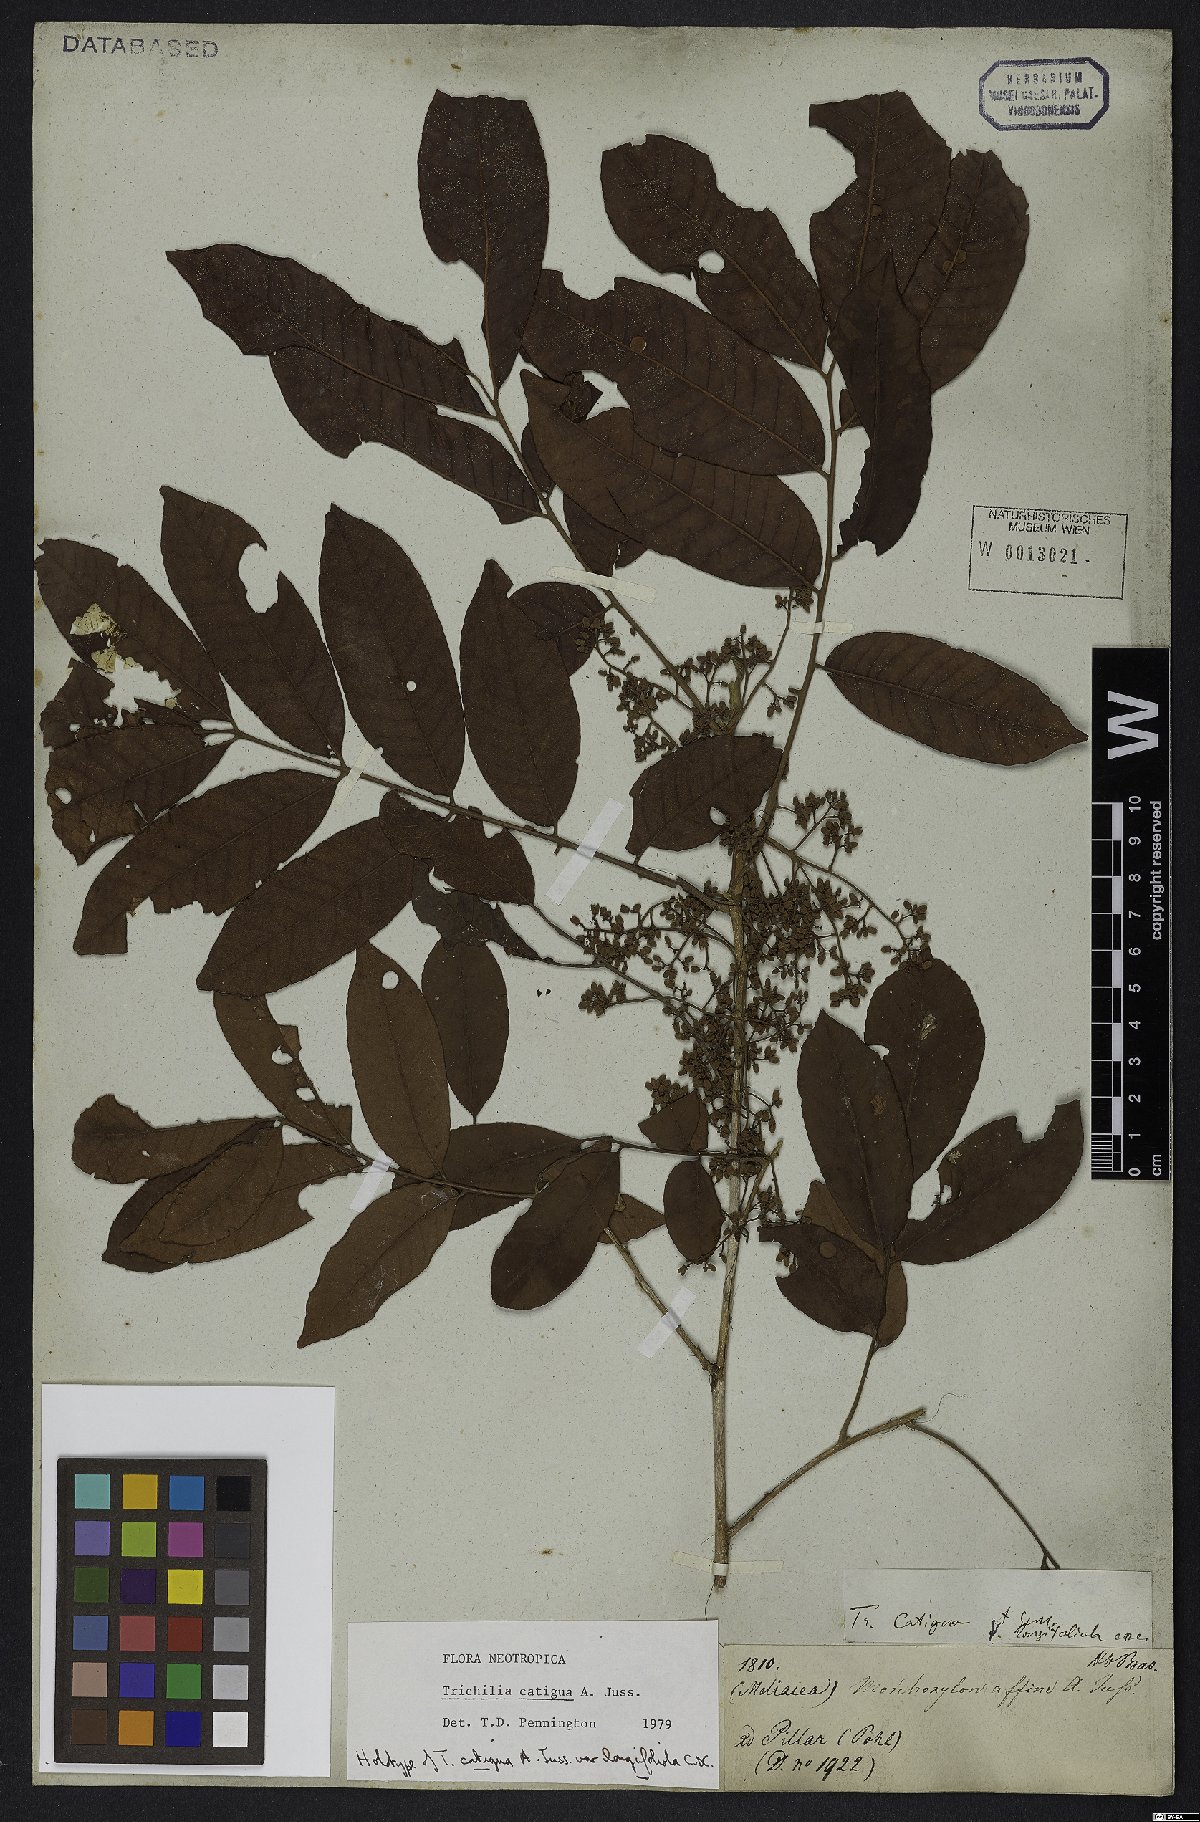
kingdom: Plantae
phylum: Tracheophyta
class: Magnoliopsida
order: Sapindales
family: Meliaceae
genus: Trichilia
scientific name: Trichilia catigua
